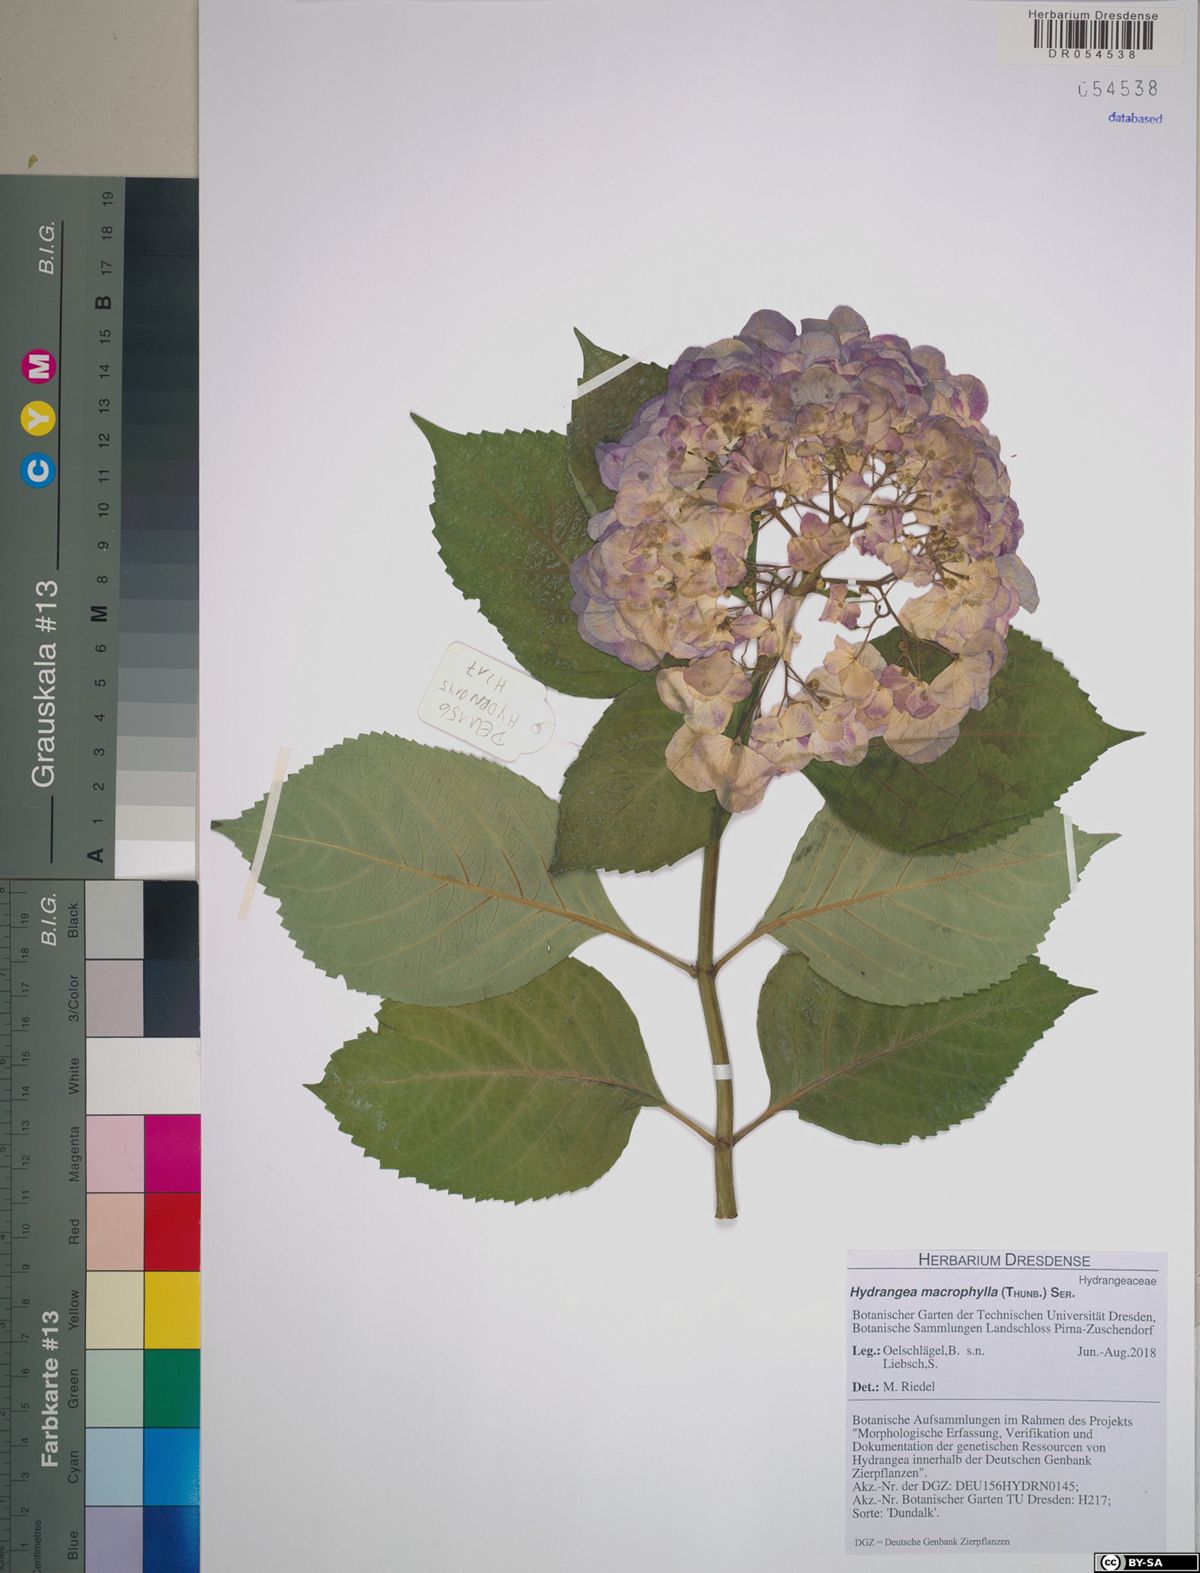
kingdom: Plantae
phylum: Tracheophyta
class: Magnoliopsida
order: Cornales
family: Hydrangeaceae
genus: Hydrangea
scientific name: Hydrangea macrophylla
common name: Hydrangea
